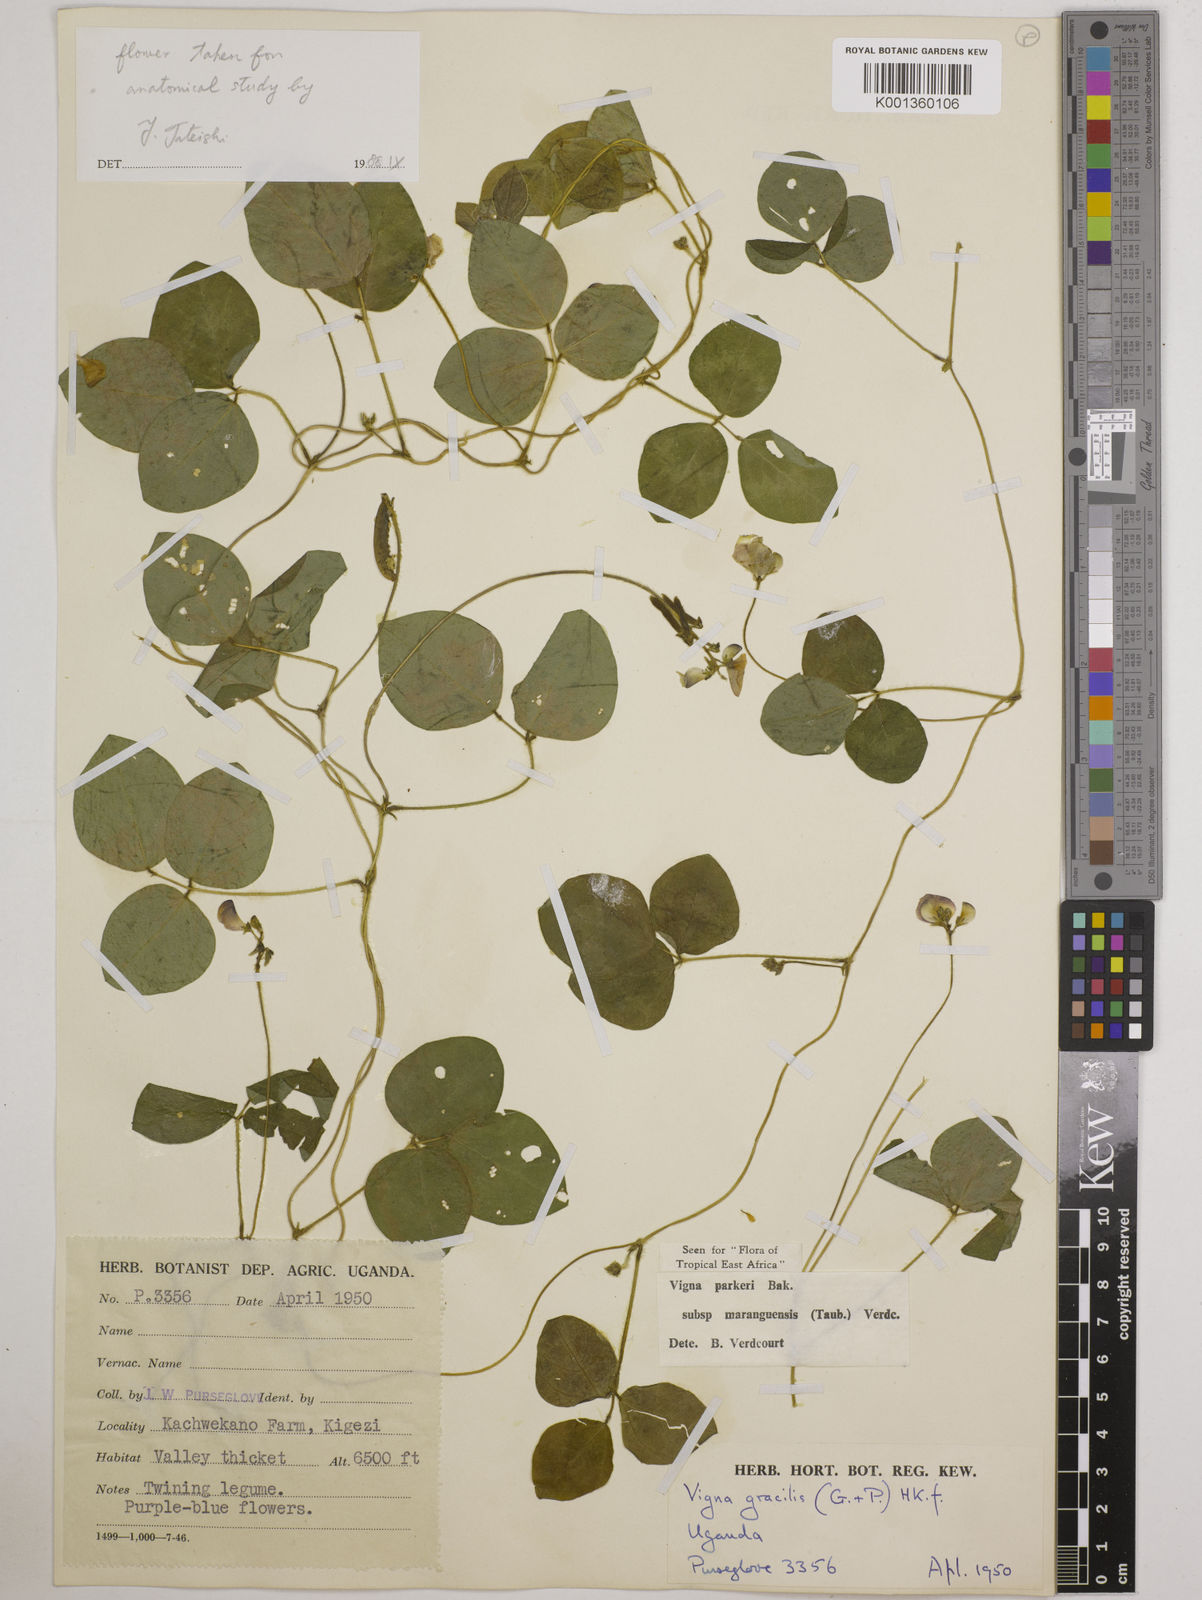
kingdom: Plantae
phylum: Tracheophyta
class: Magnoliopsida
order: Fabales
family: Fabaceae
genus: Vigna
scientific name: Vigna parkeri
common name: Creeping vigna
